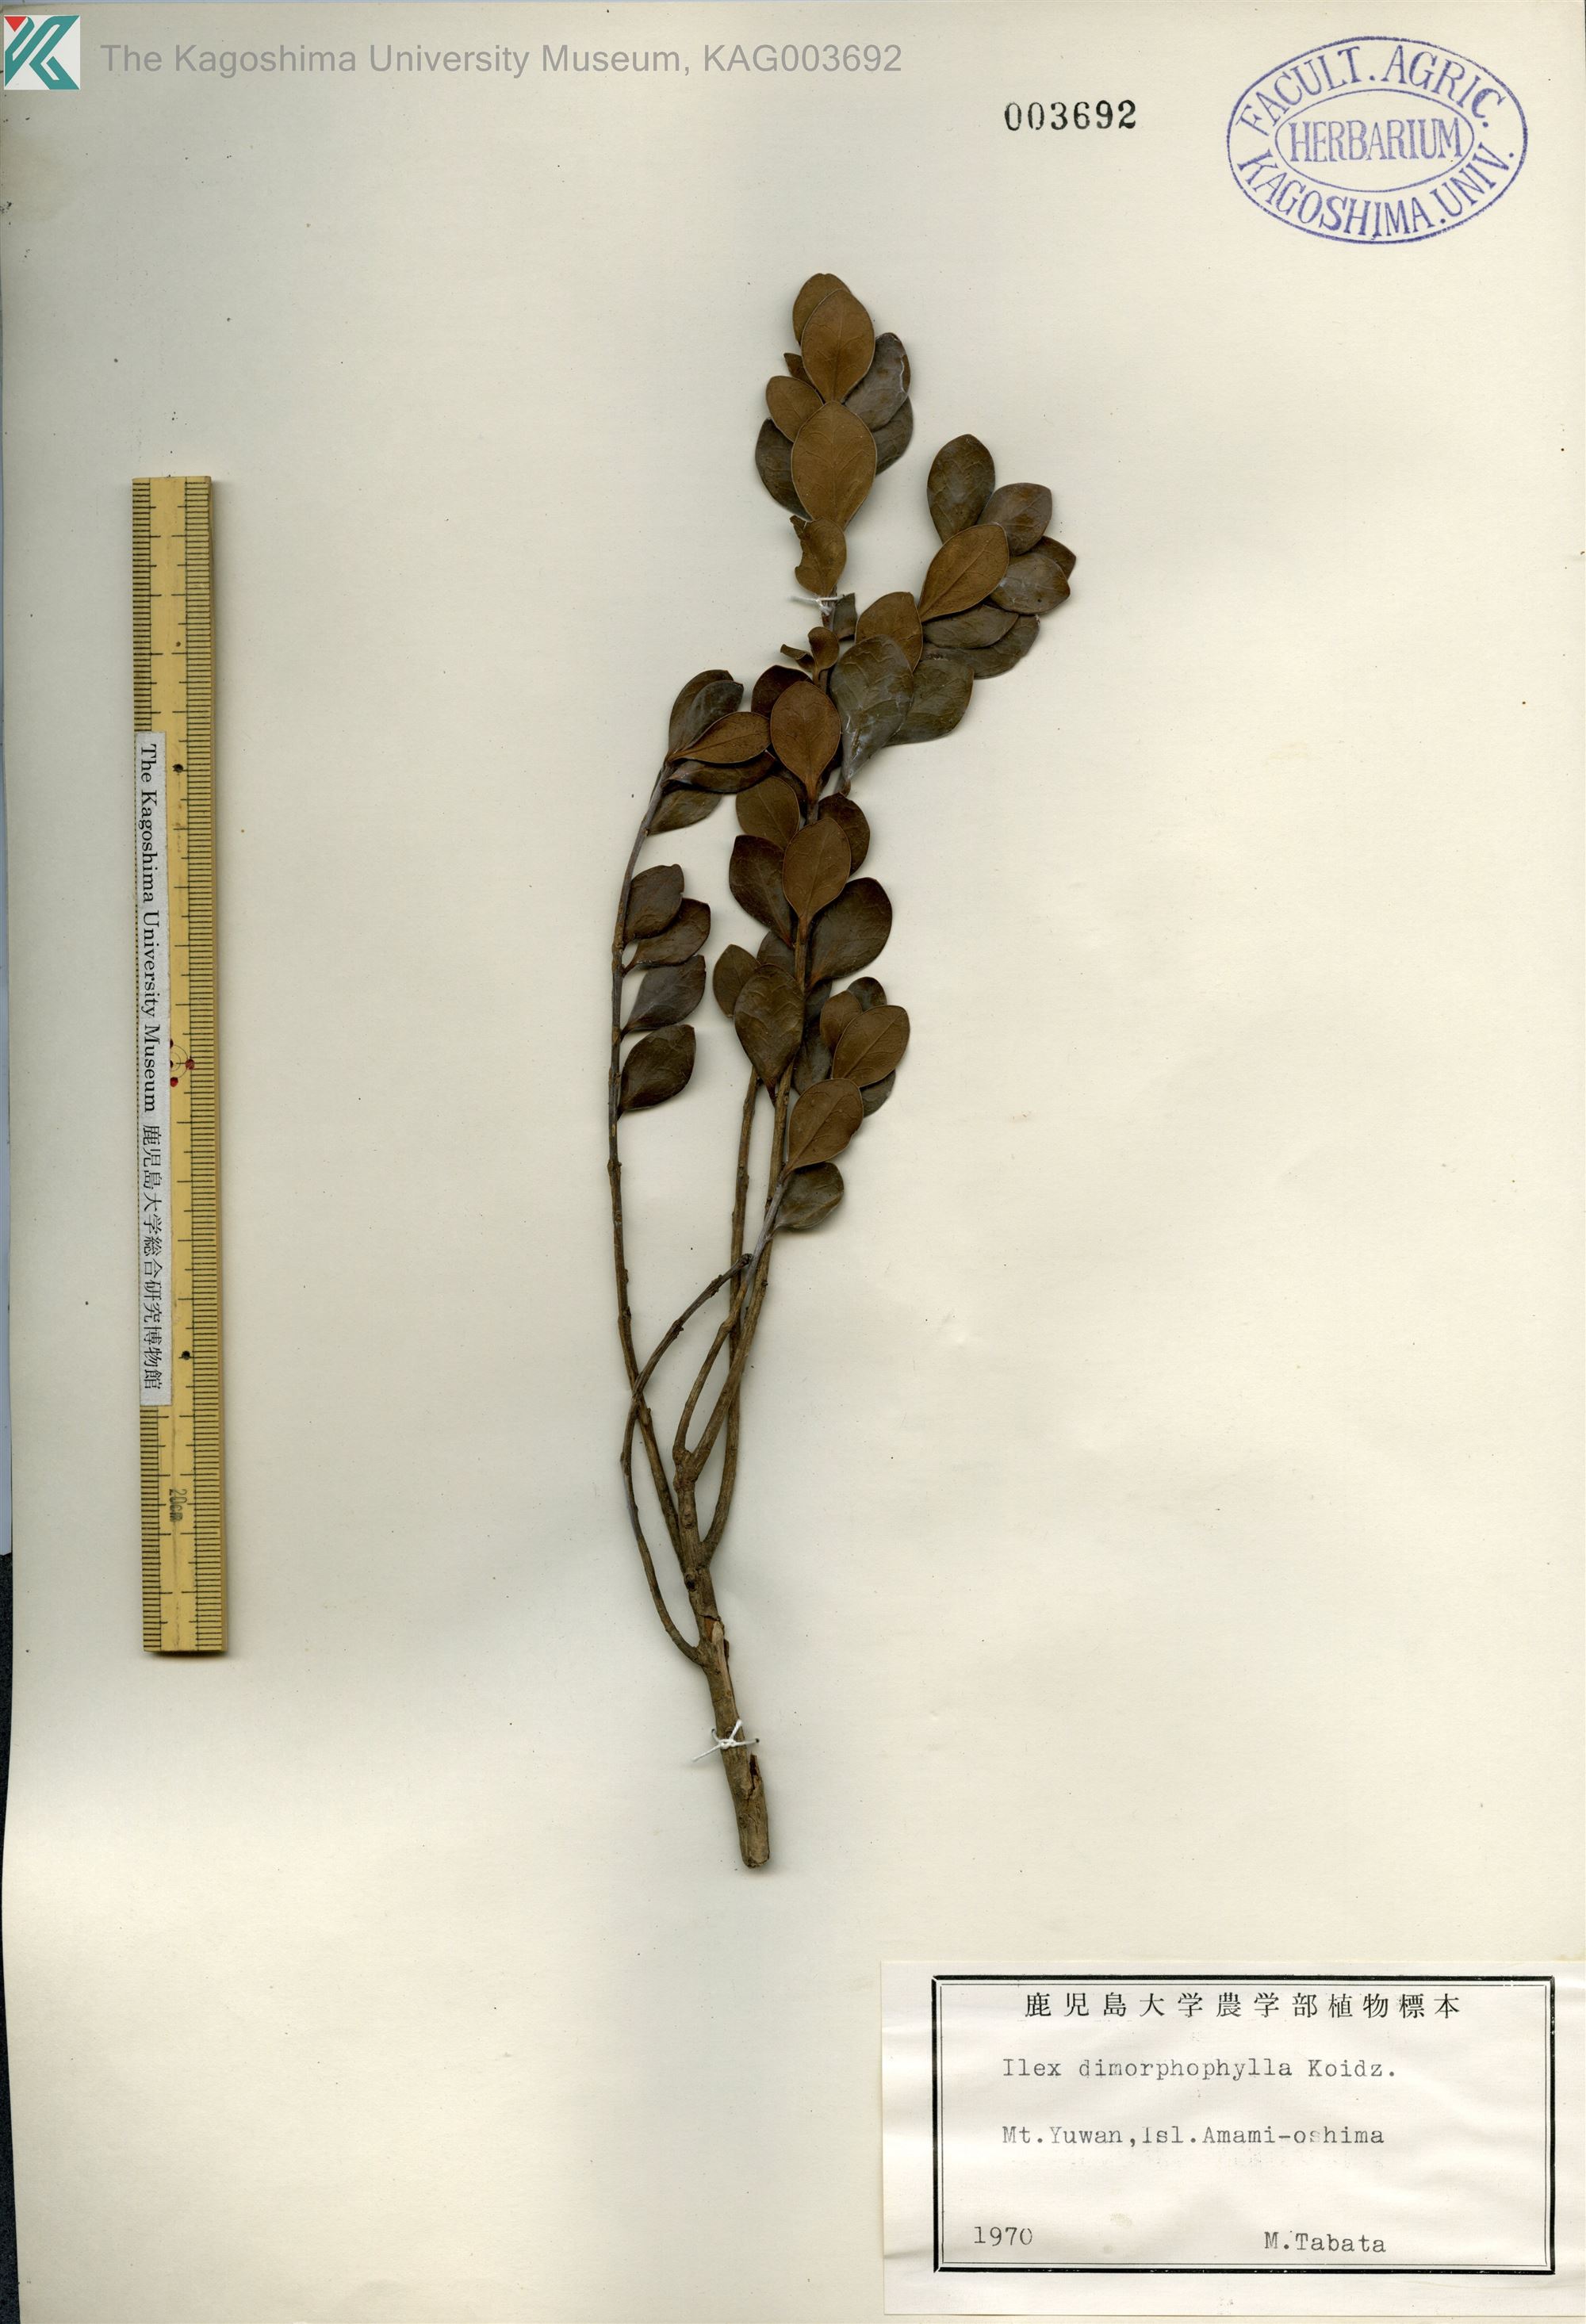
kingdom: Plantae
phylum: Tracheophyta
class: Magnoliopsida
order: Aquifoliales
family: Aquifoliaceae
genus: Ilex
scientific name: Ilex
